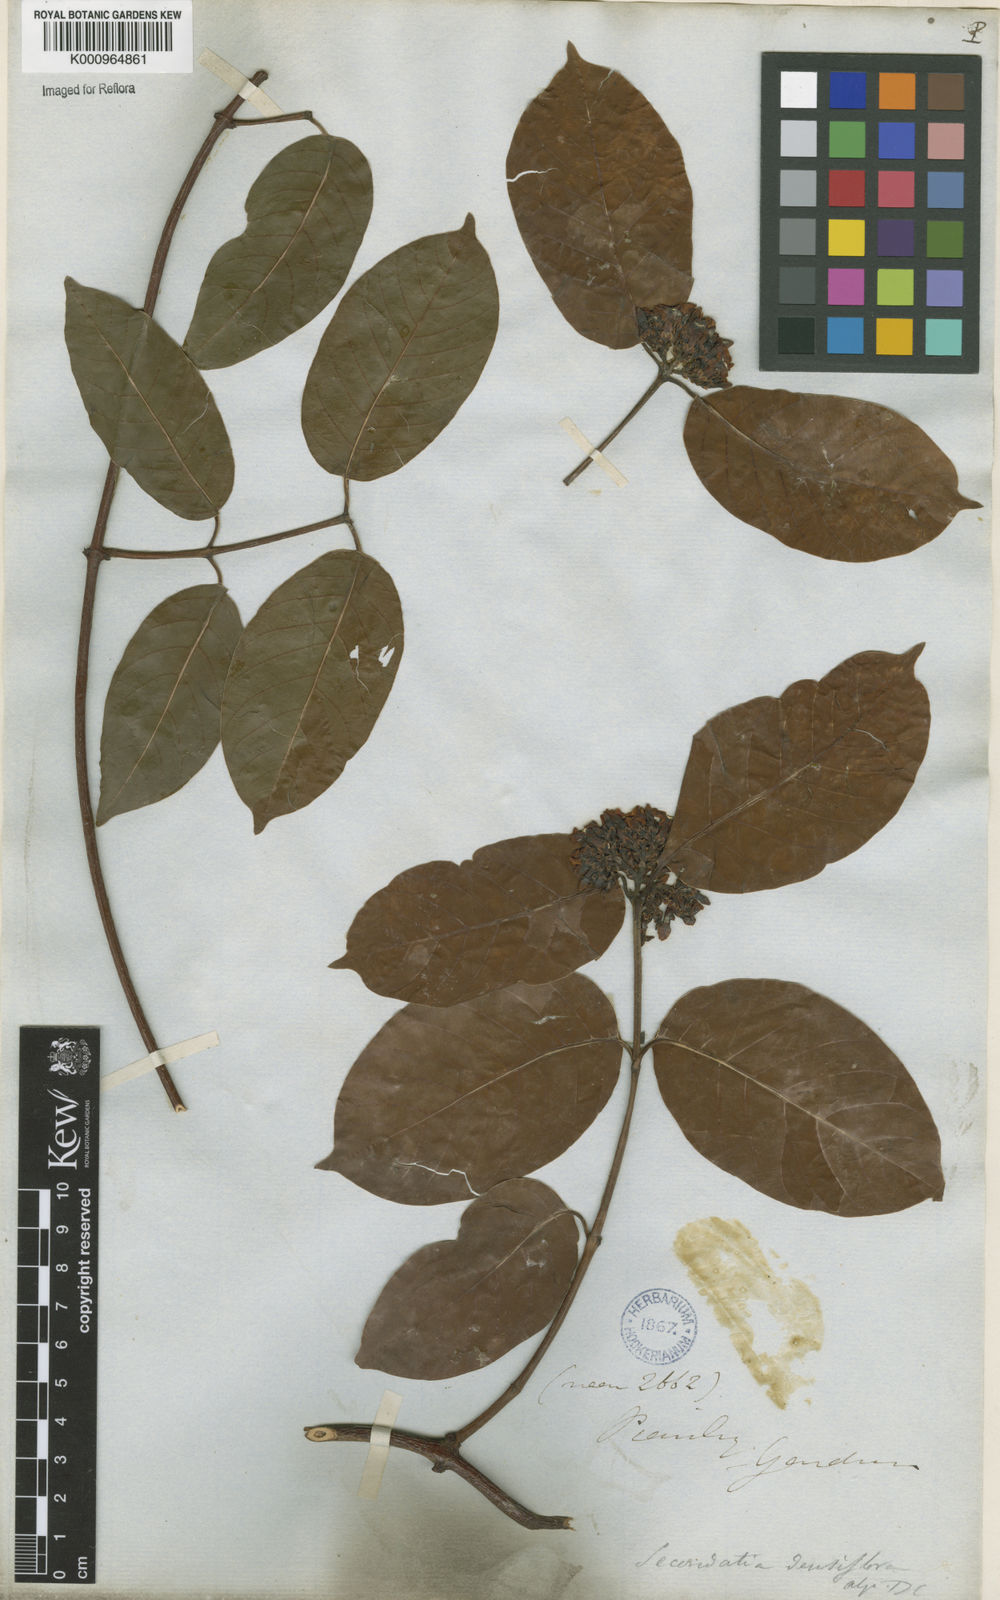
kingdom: Plantae
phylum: Tracheophyta
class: Magnoliopsida
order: Gentianales
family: Apocynaceae
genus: Secondatia
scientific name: Secondatia densiflora
